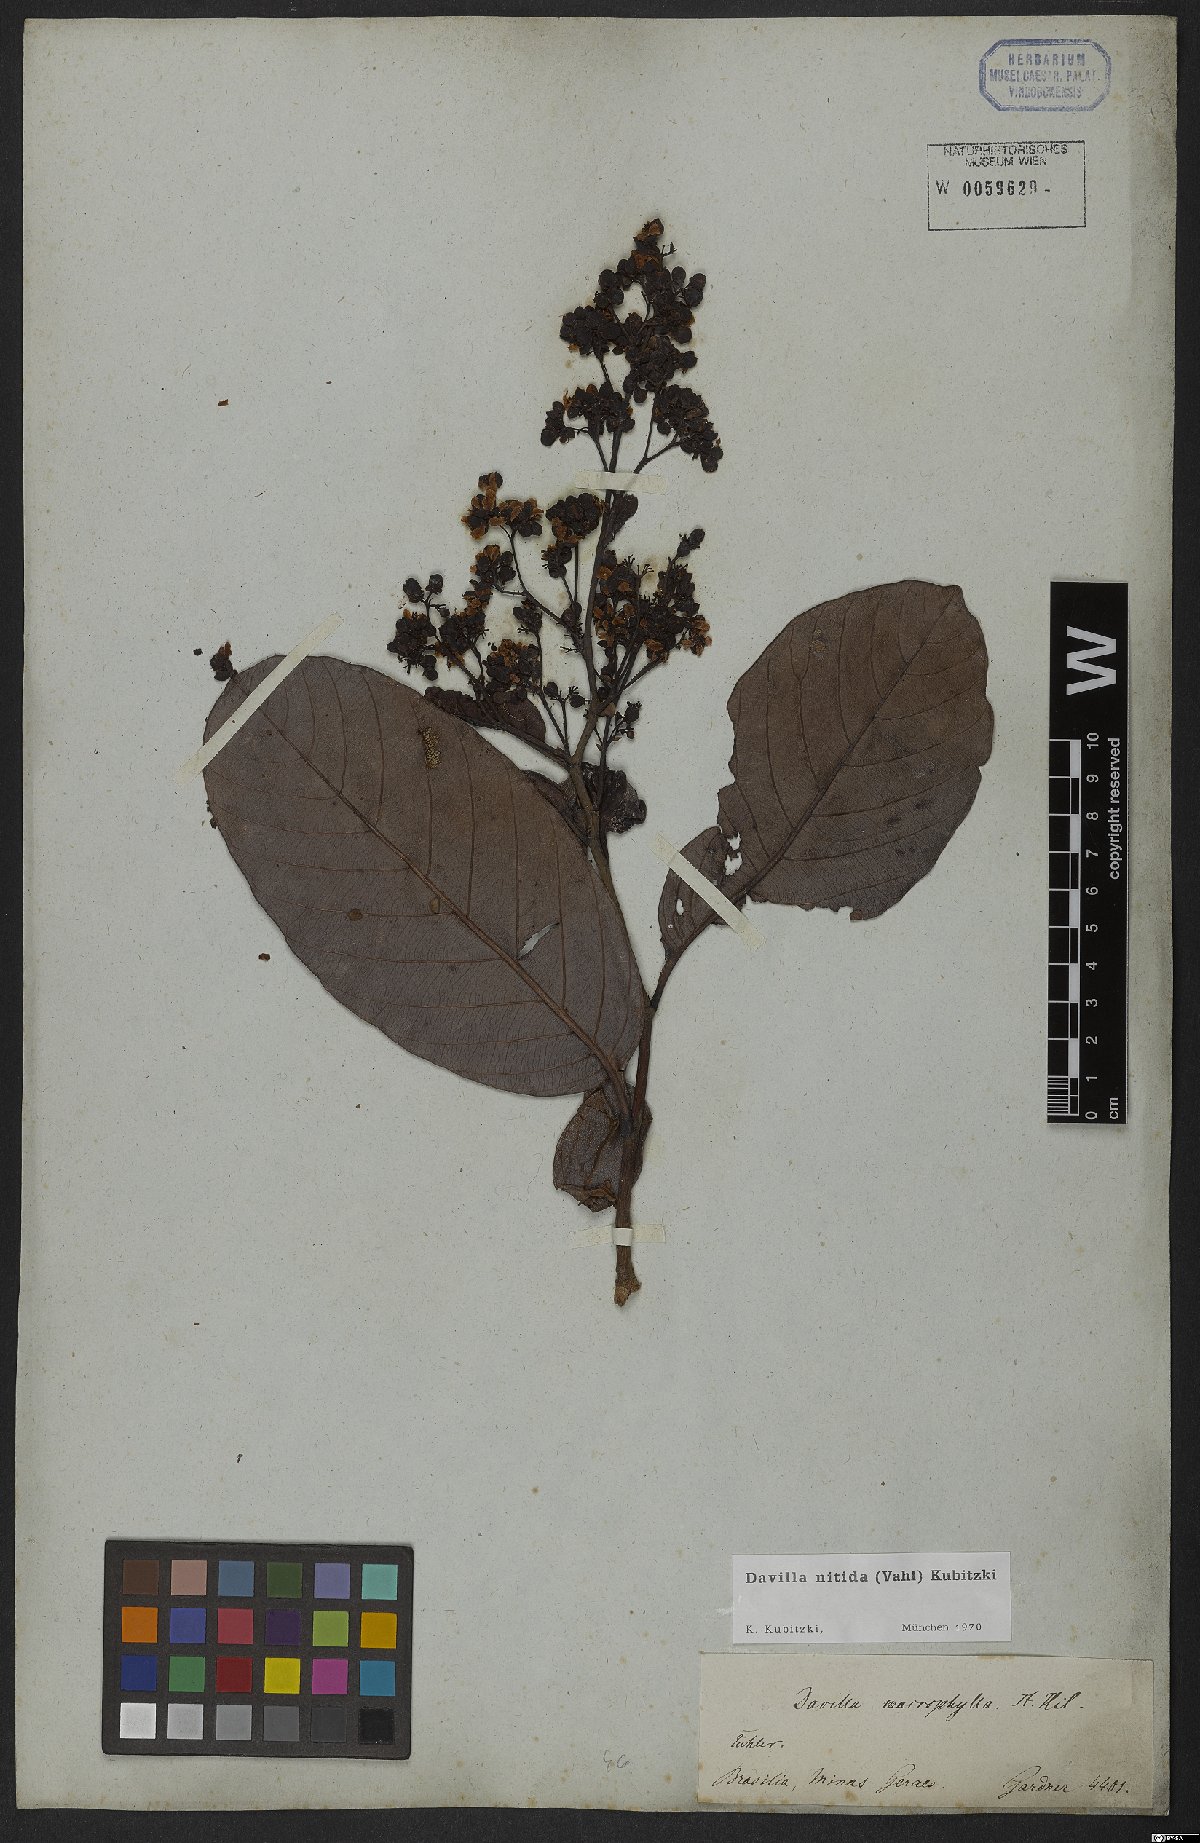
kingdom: Plantae
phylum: Tracheophyta
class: Magnoliopsida
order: Dilleniales
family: Dilleniaceae
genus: Davilla
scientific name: Davilla nitida
